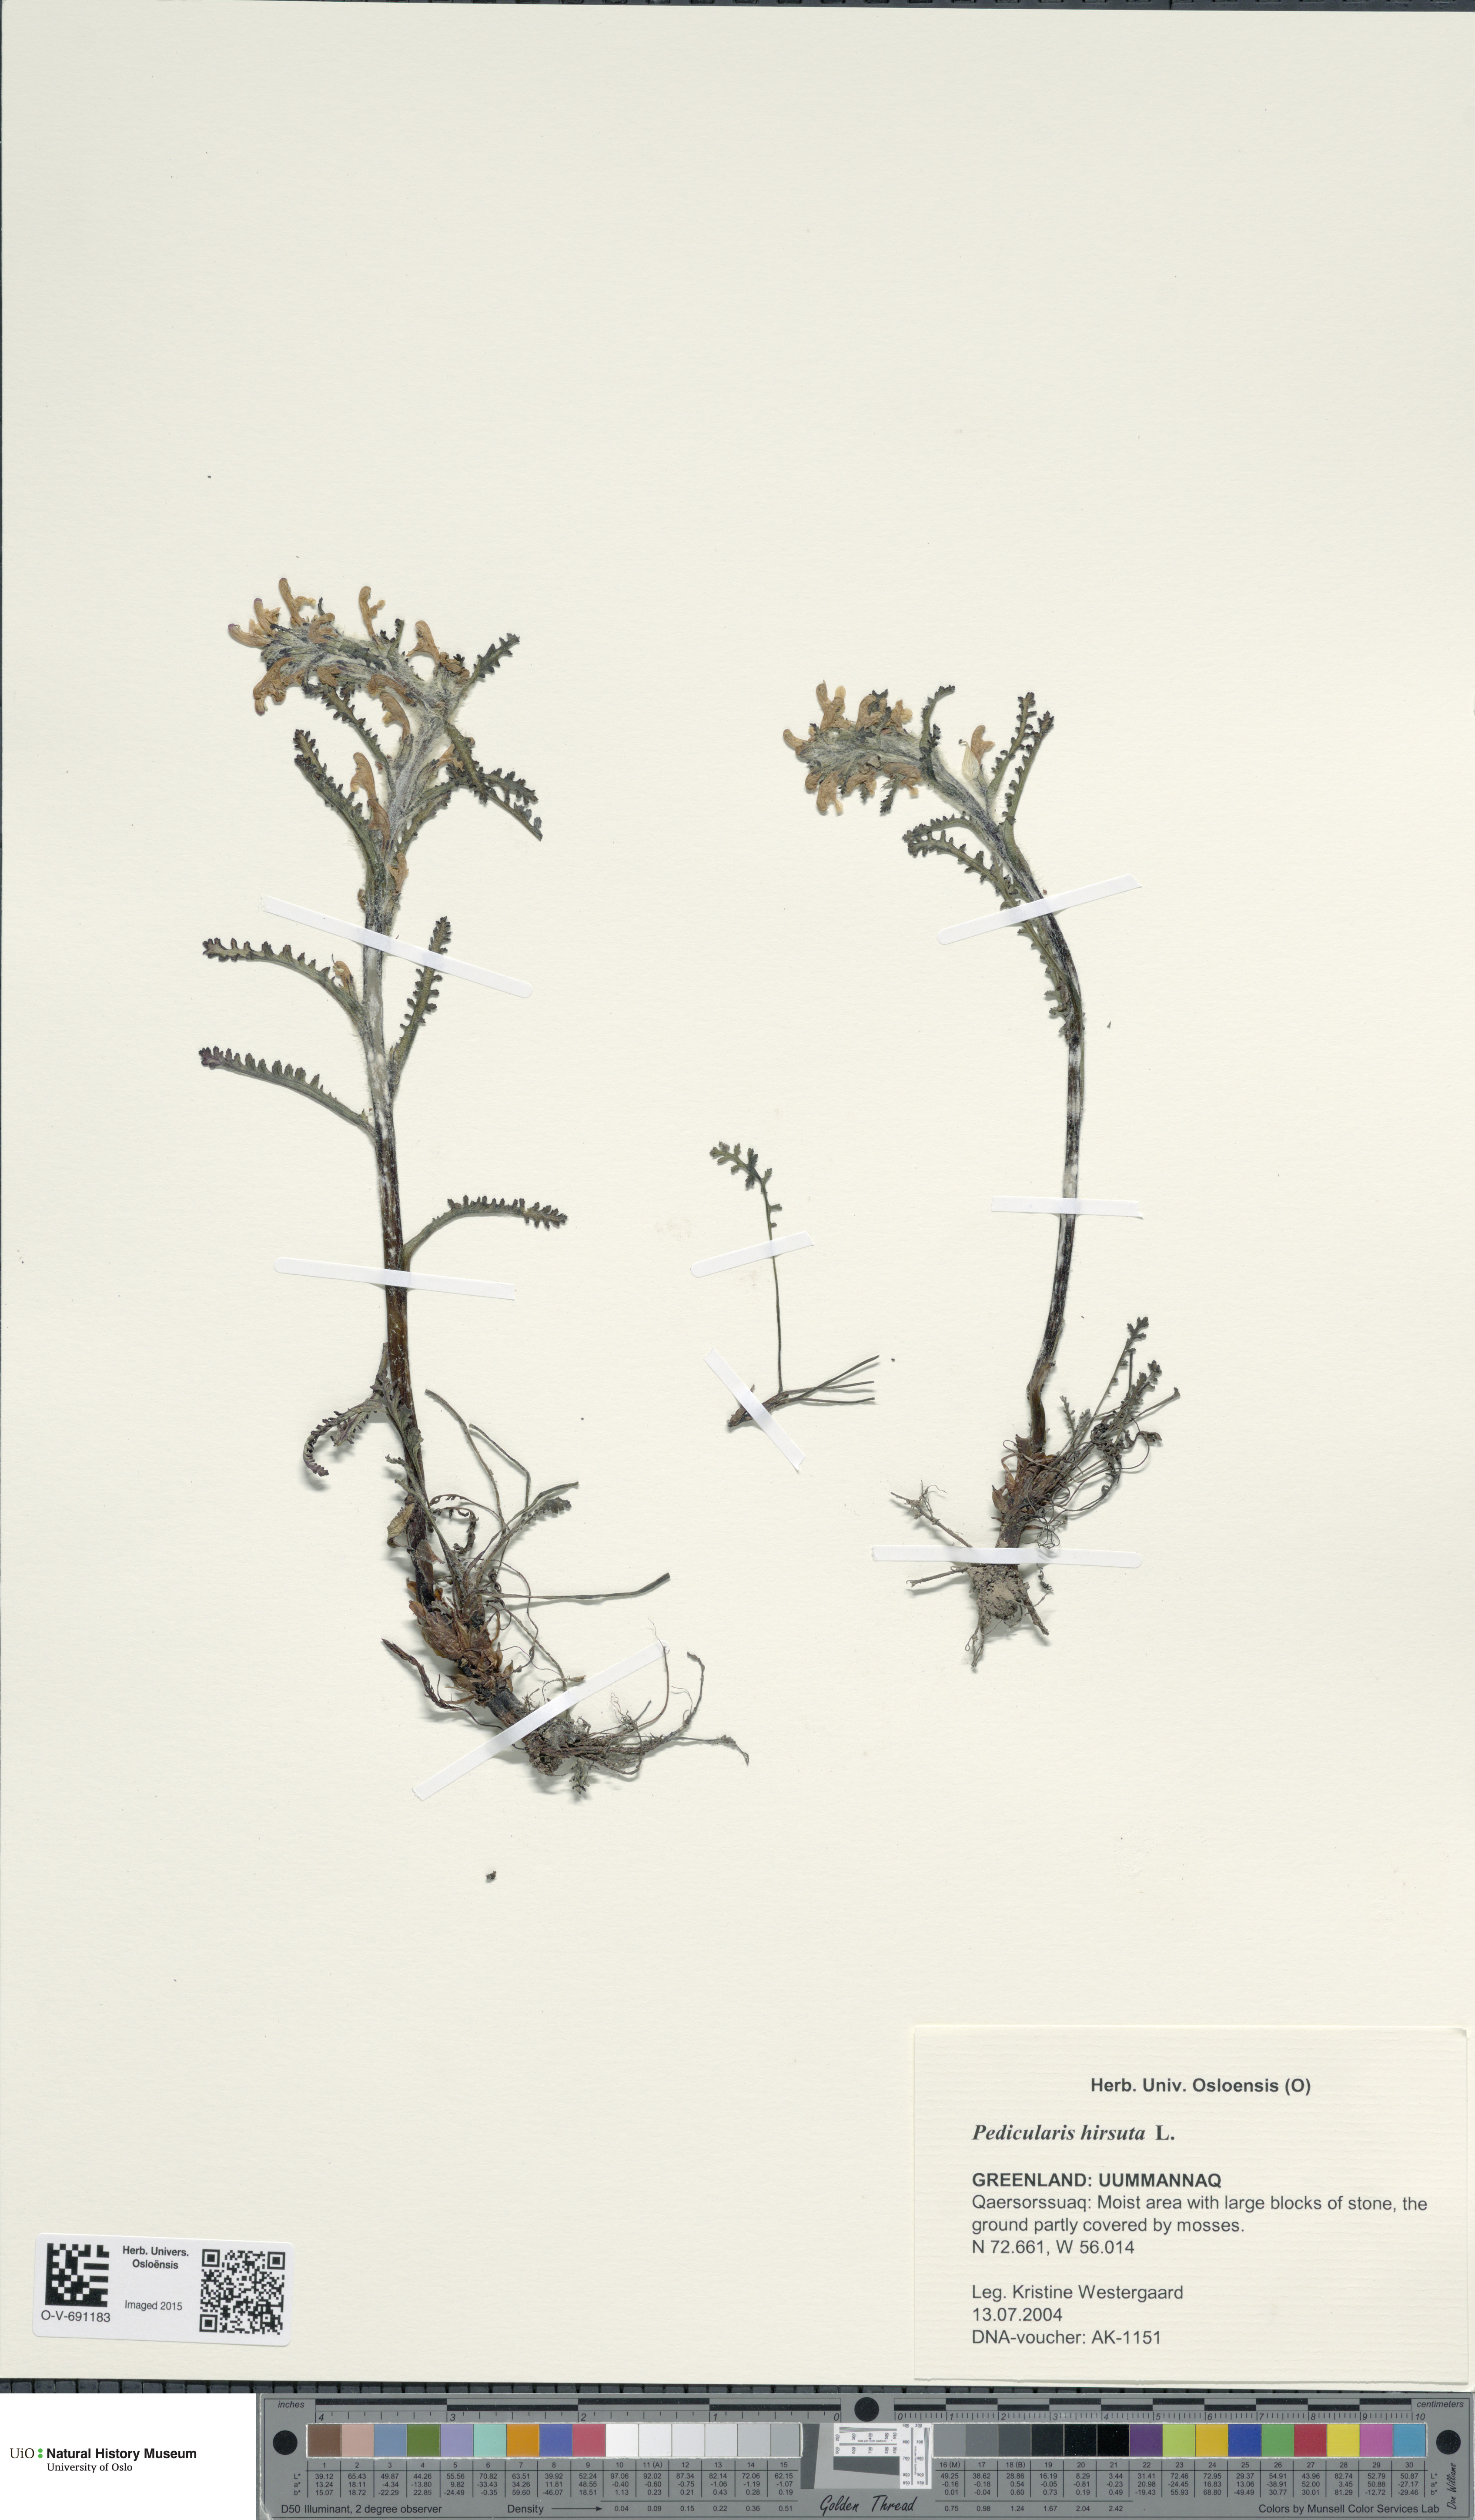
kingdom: Plantae
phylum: Tracheophyta
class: Magnoliopsida
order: Lamiales
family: Orobanchaceae
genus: Pedicularis
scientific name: Pedicularis hirsuta
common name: Hairy lousewort
